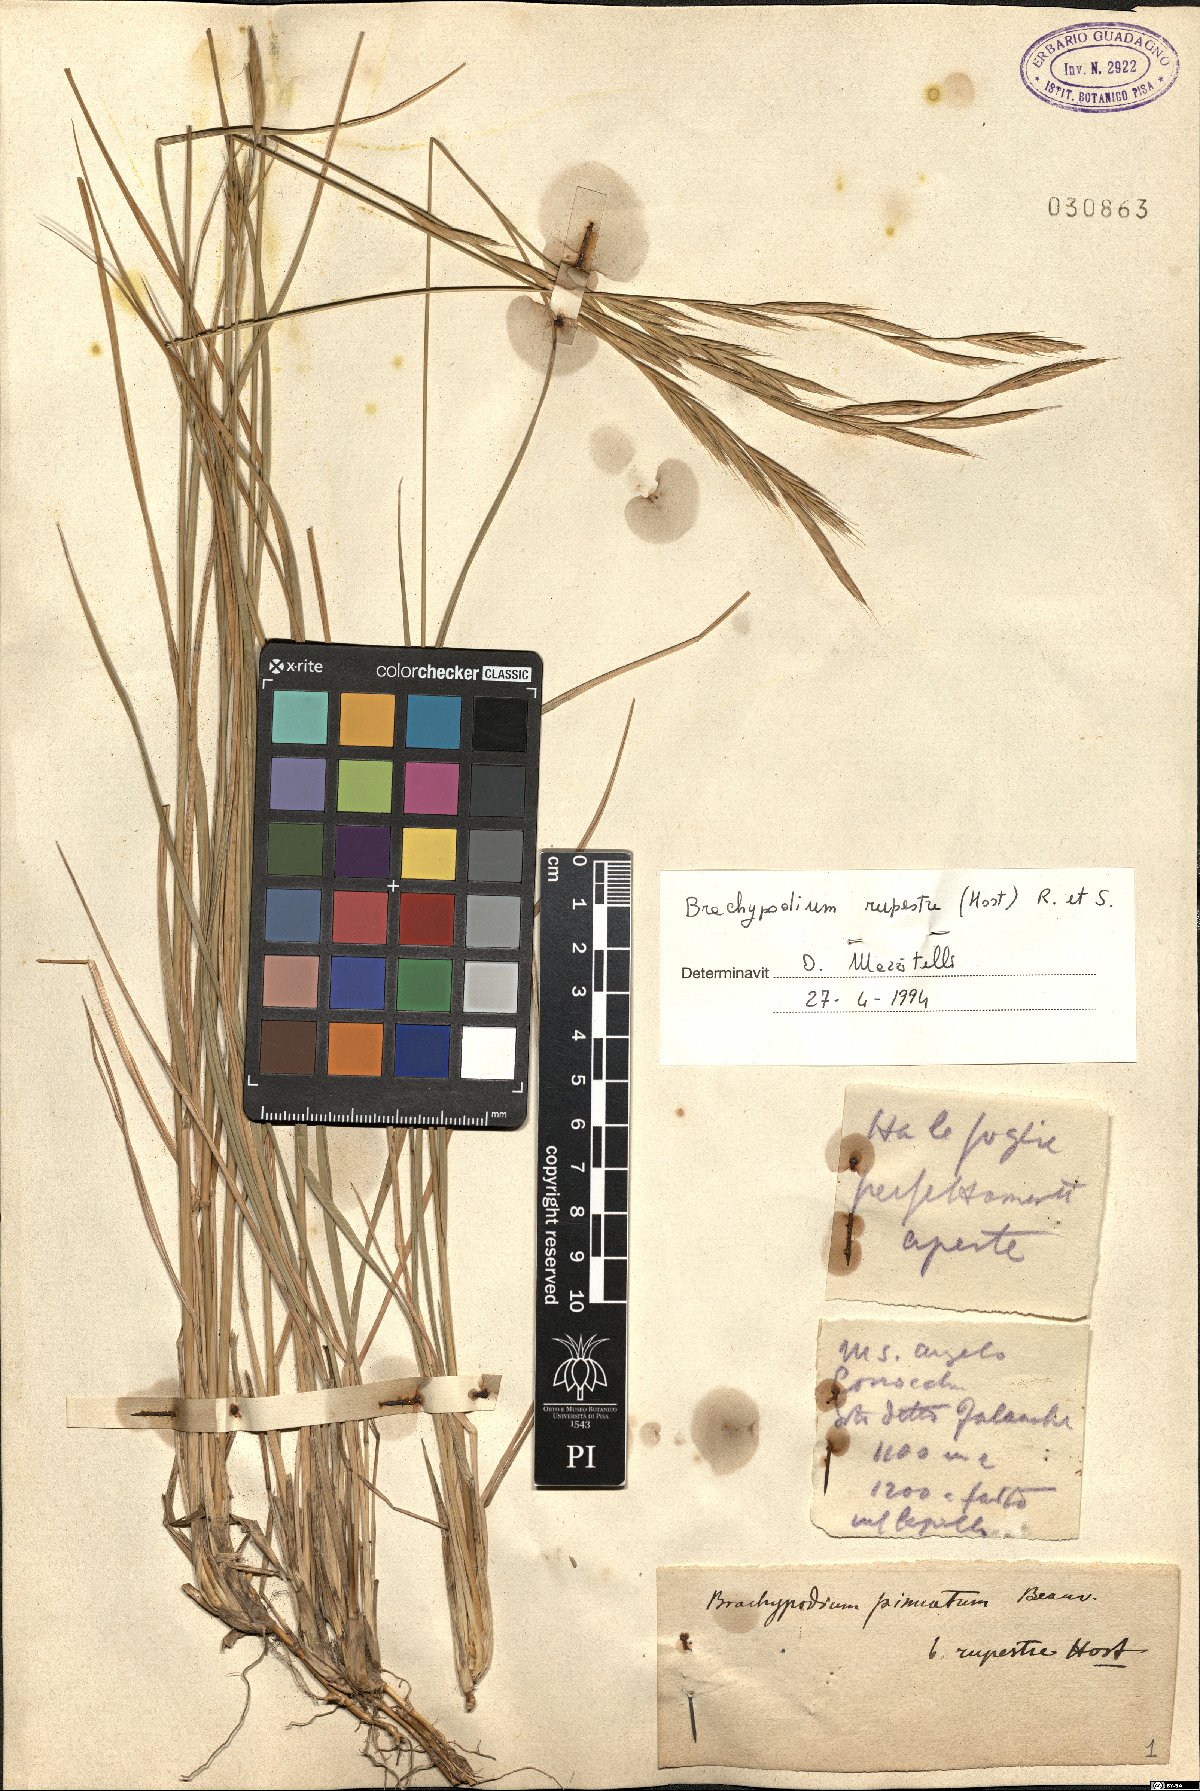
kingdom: Plantae
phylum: Tracheophyta
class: Liliopsida
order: Poales
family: Poaceae
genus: Brachypodium
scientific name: Brachypodium pinnatum
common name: Tor grass
